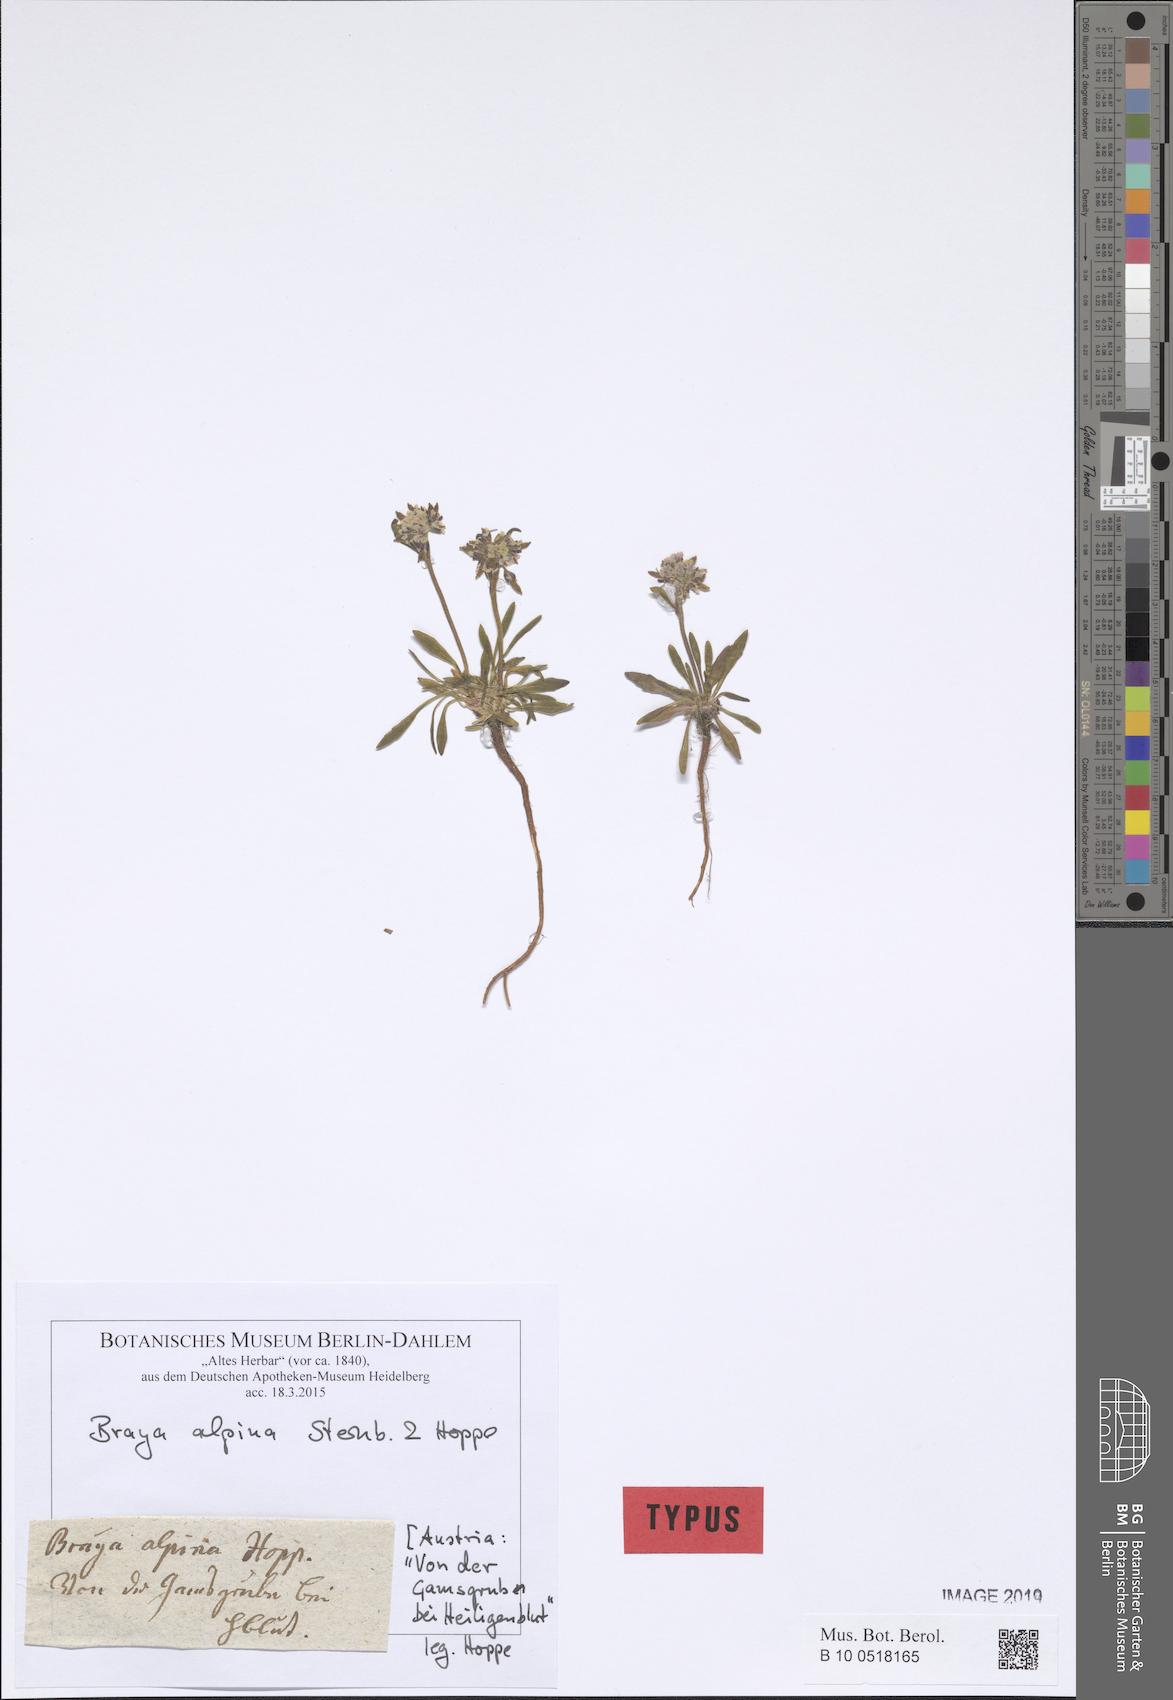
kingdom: Plantae
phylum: Tracheophyta
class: Magnoliopsida
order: Brassicales
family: Brassicaceae
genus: Braya
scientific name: Braya alpina
